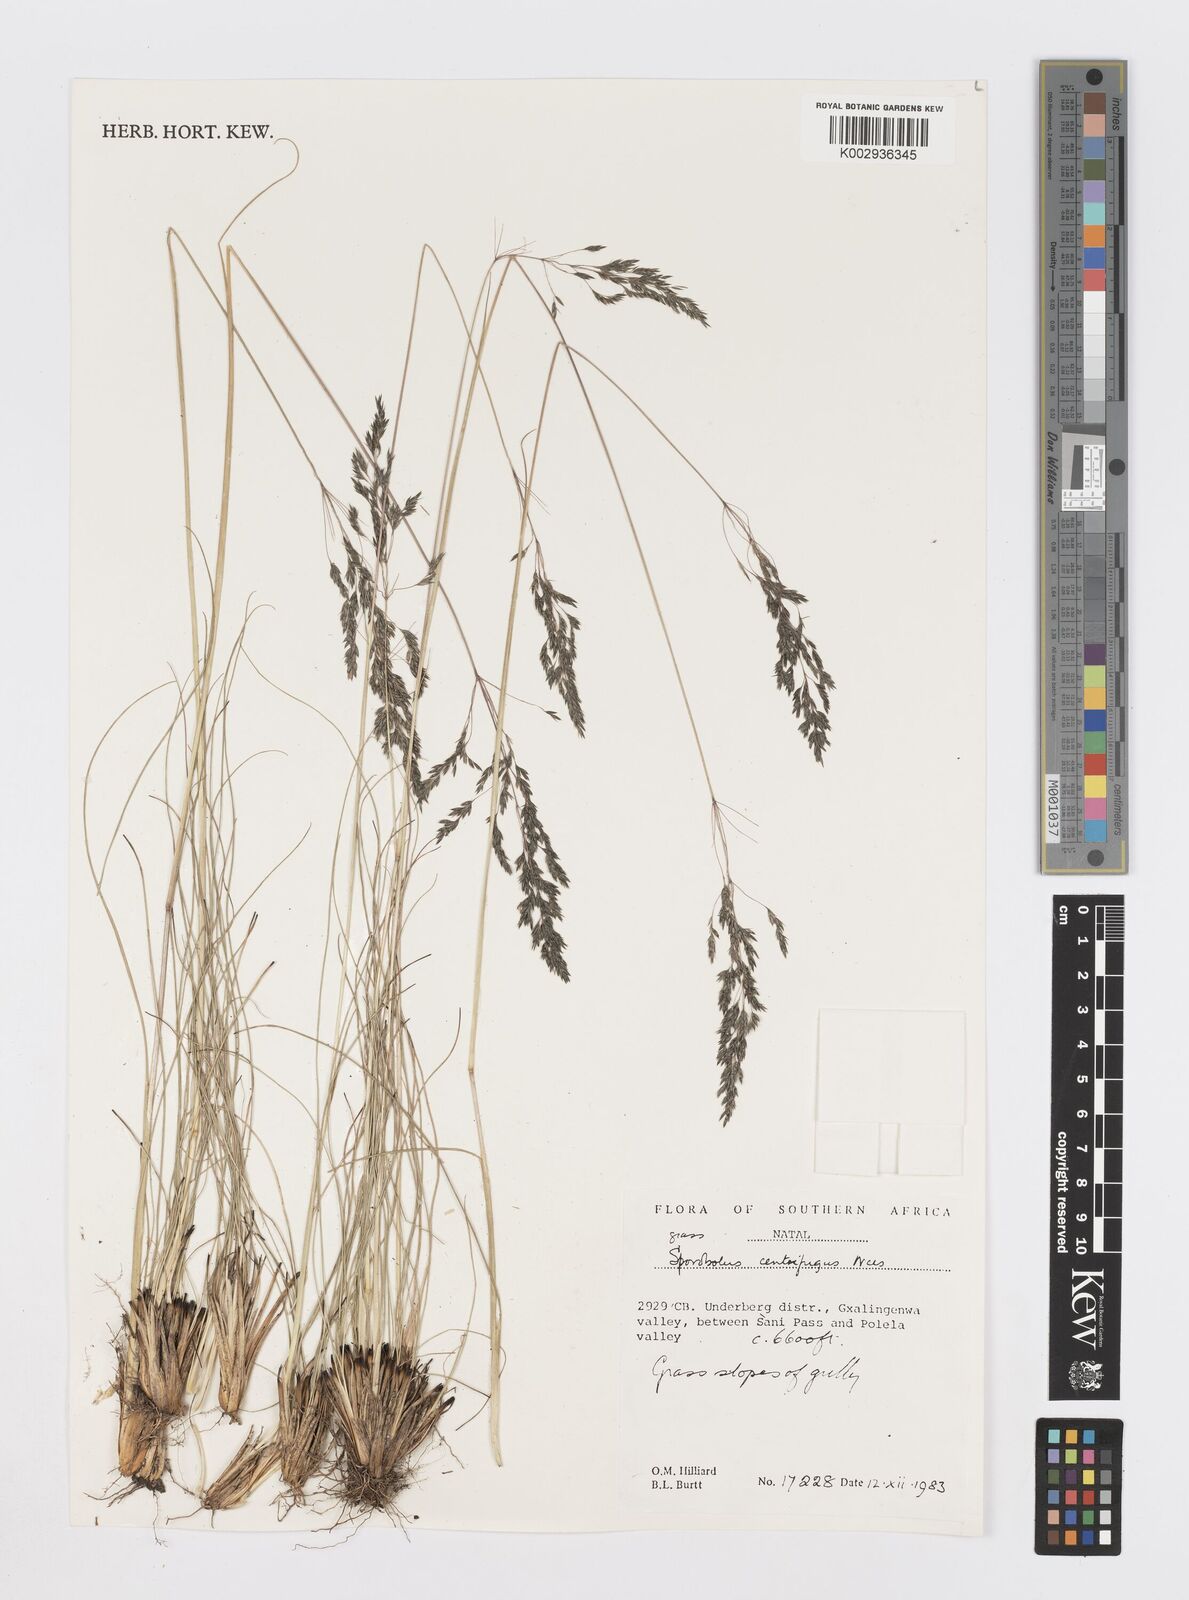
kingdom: Plantae
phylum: Tracheophyta
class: Liliopsida
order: Poales
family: Poaceae
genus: Sporobolus
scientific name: Sporobolus centrifugus
